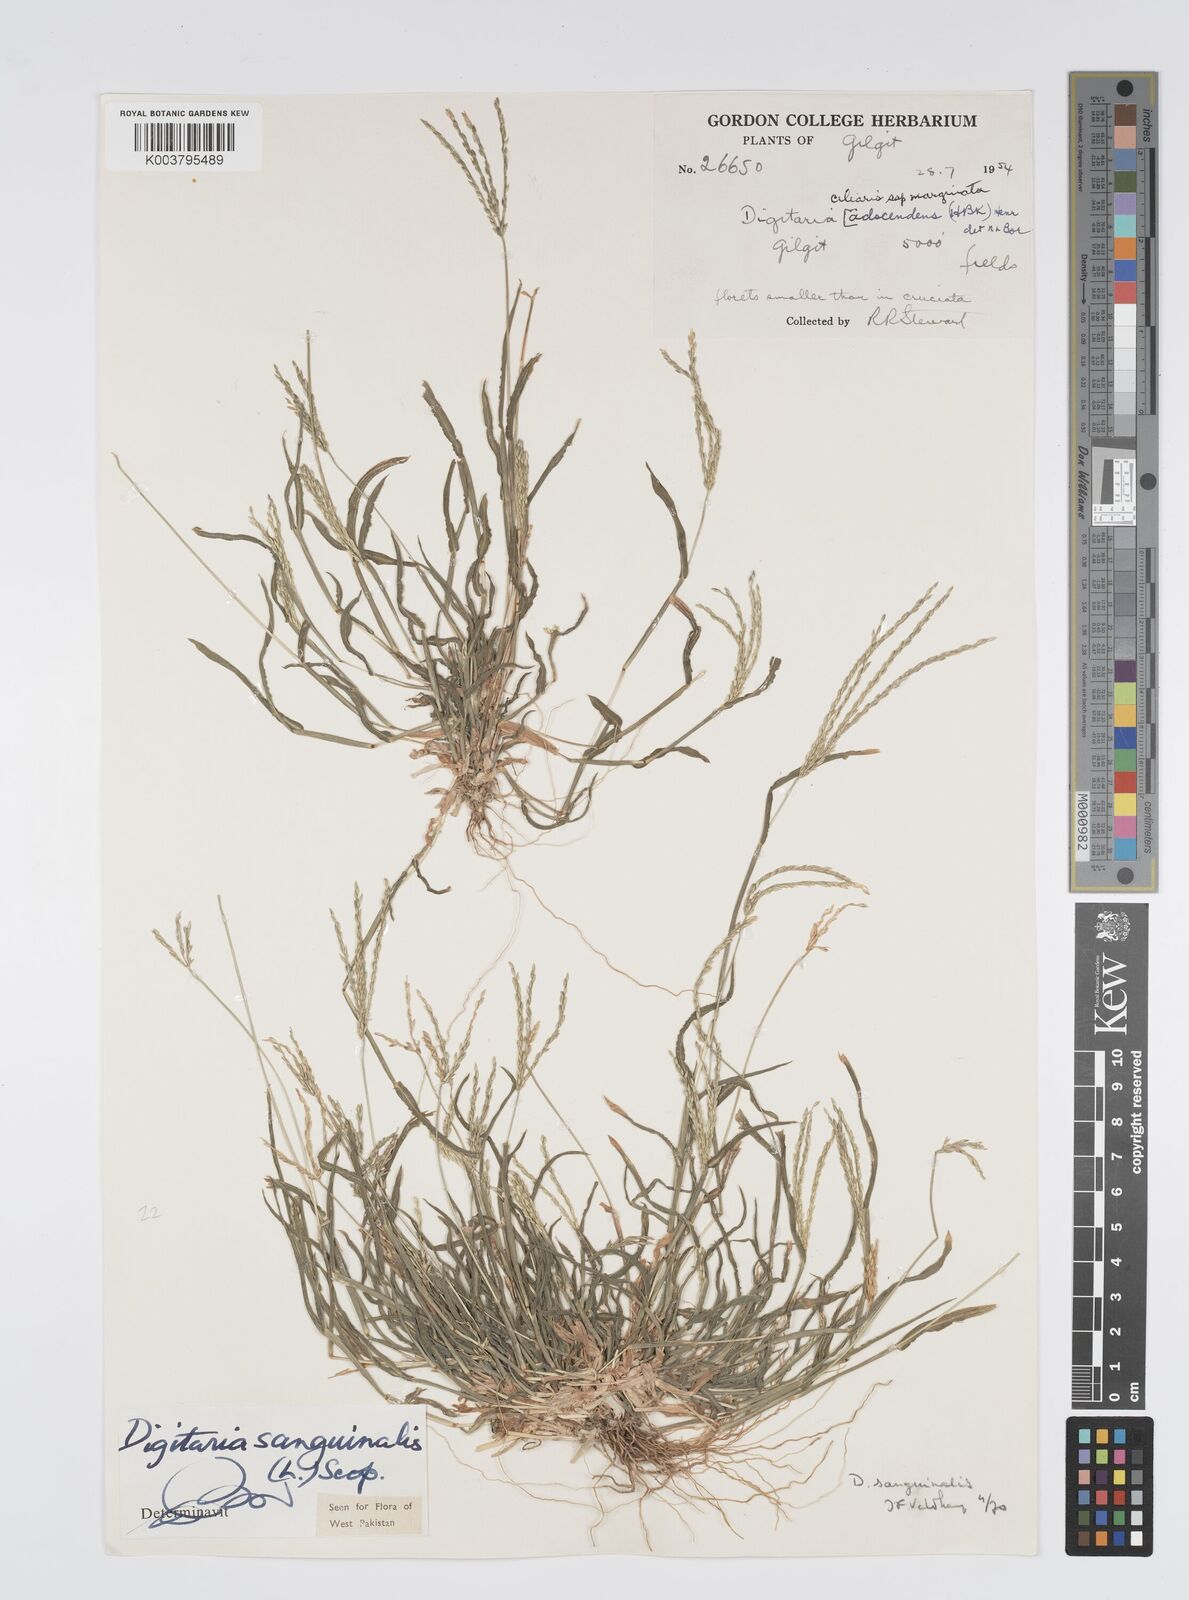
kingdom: Plantae
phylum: Tracheophyta
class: Liliopsida
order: Poales
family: Poaceae
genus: Digitaria
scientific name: Digitaria sanguinalis
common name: Hairy crabgrass
